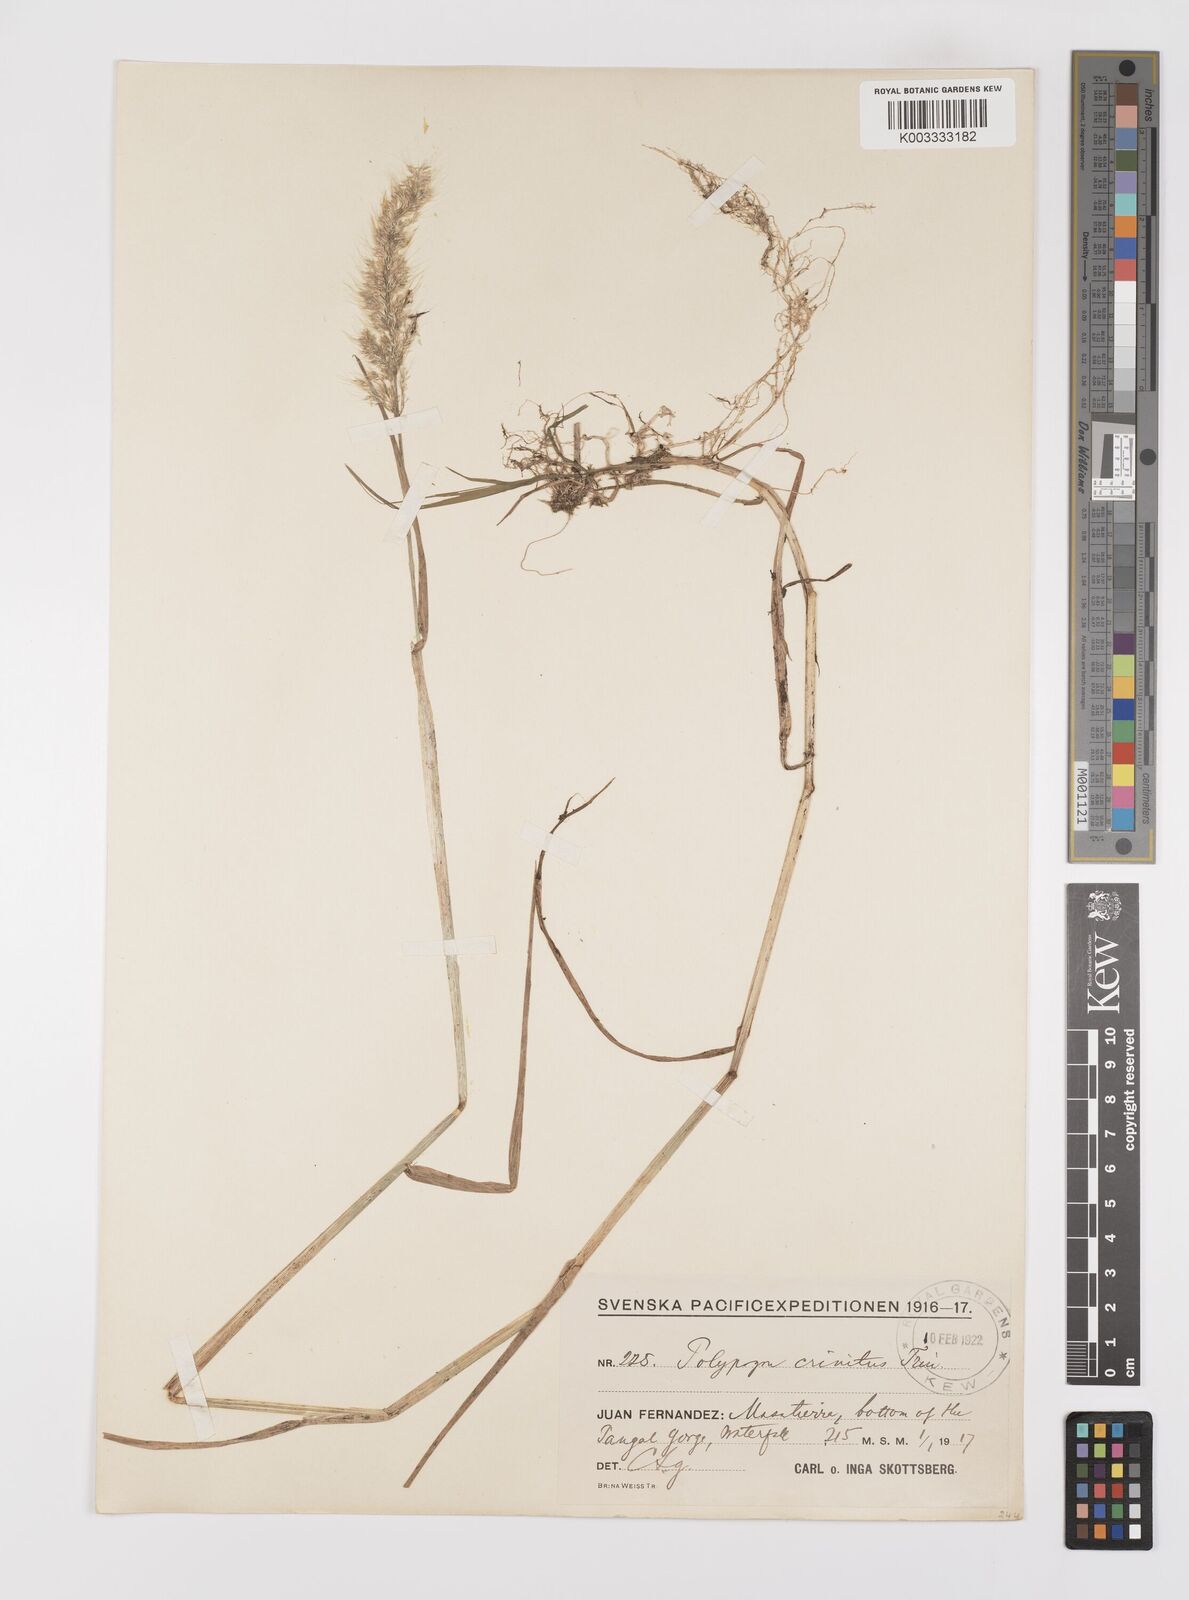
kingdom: Plantae
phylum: Tracheophyta
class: Liliopsida
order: Poales
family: Poaceae
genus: Polypogon
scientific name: Polypogon australis
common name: Chilean rabbitsfoot grass
